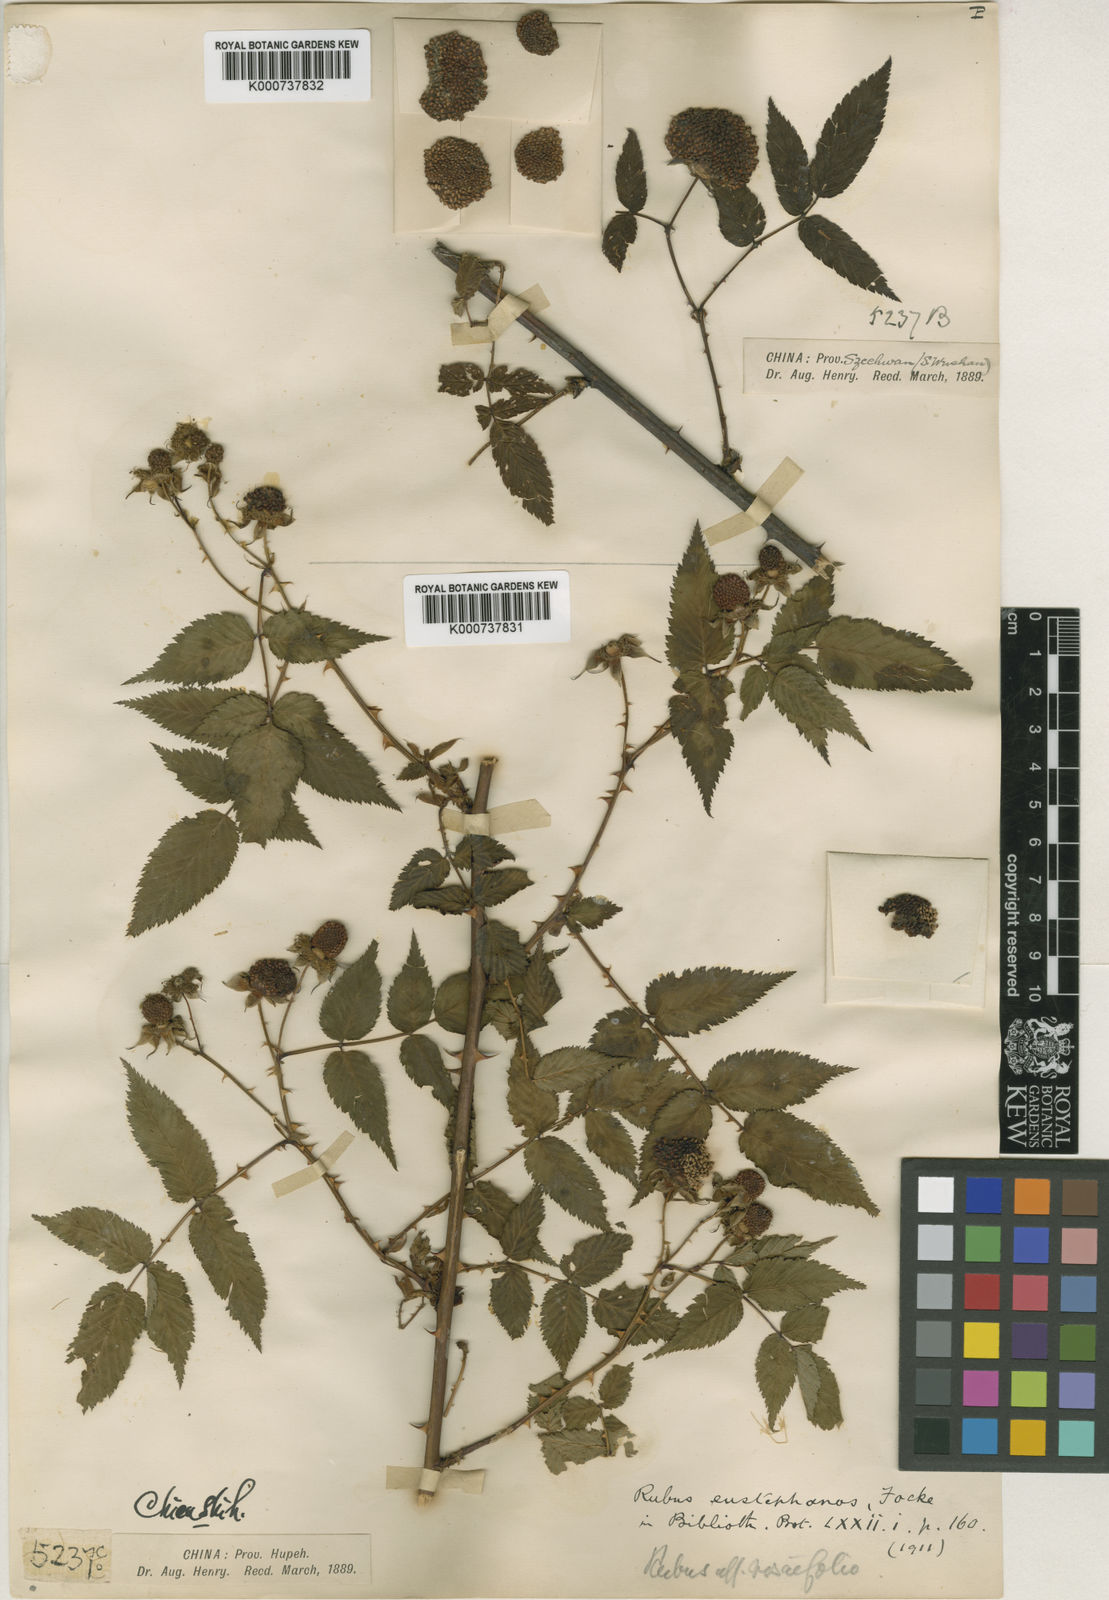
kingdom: Plantae
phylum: Tracheophyta
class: Magnoliopsida
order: Rosales
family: Rosaceae
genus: Rubus
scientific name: Rubus eustephanos
